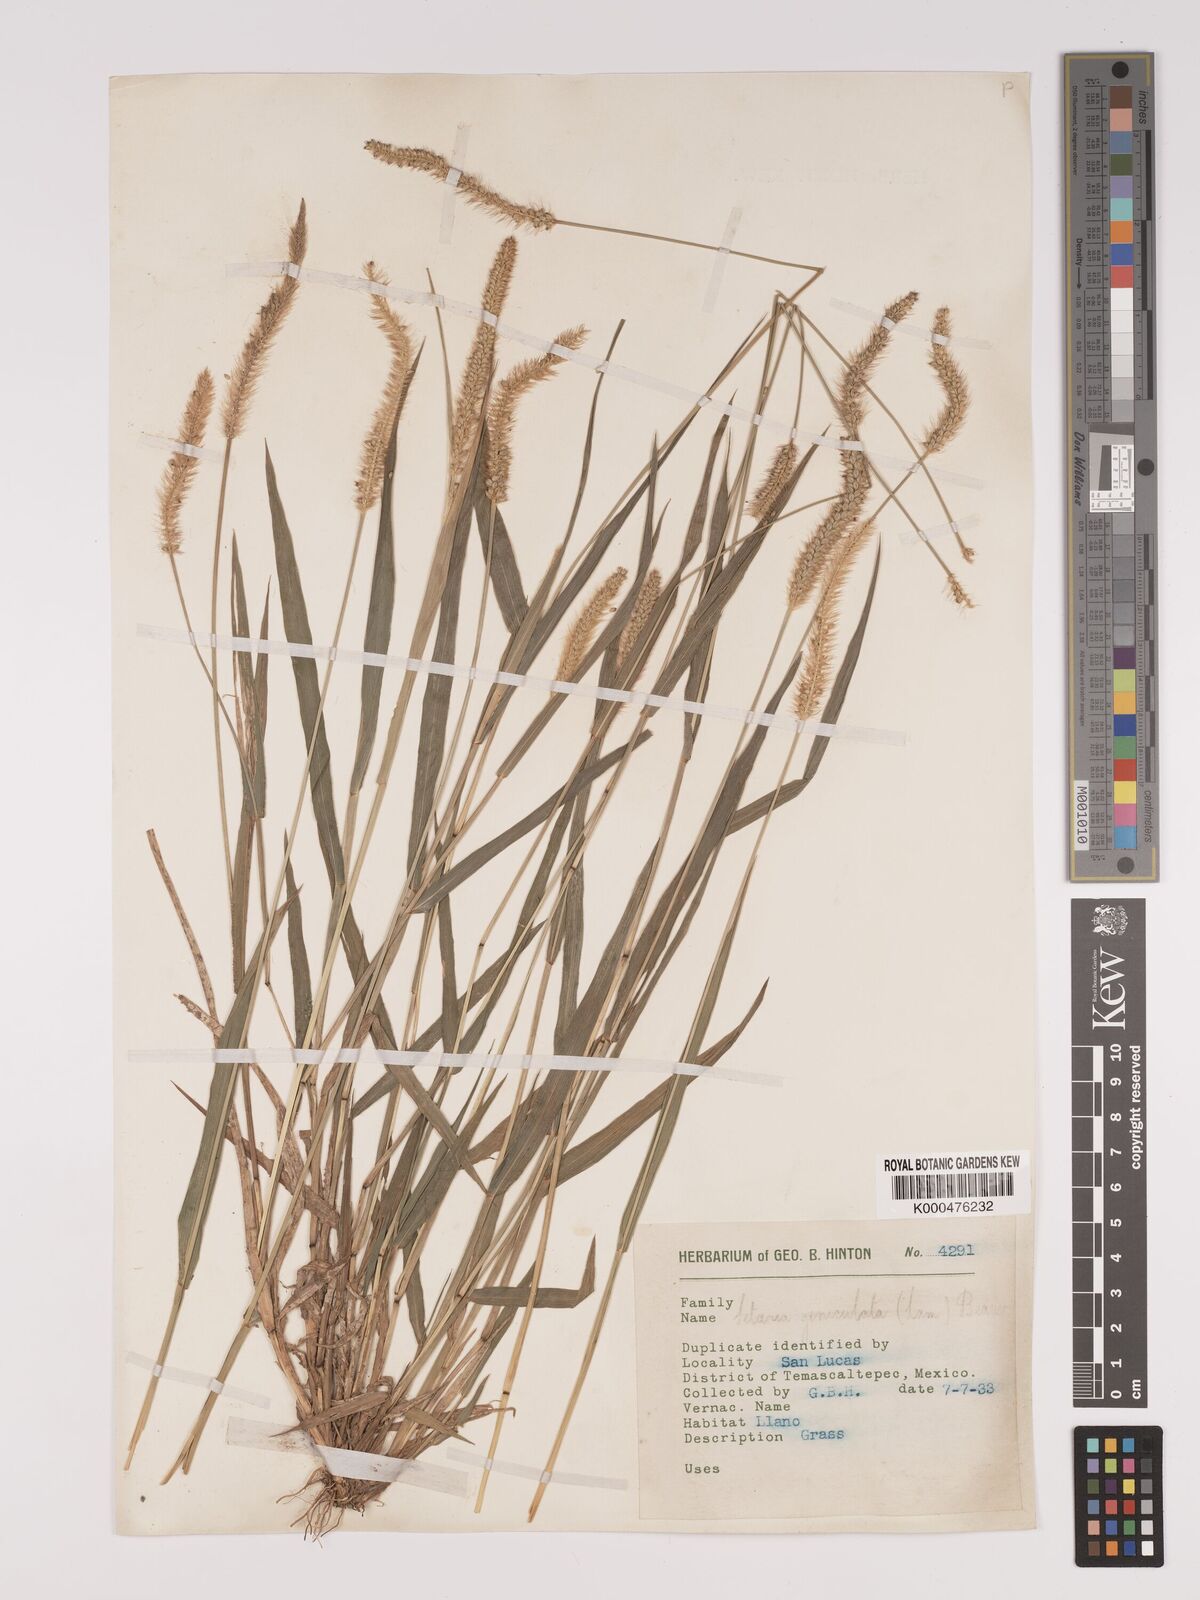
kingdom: Plantae
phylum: Tracheophyta
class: Liliopsida
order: Poales
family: Poaceae
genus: Setaria
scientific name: Setaria
